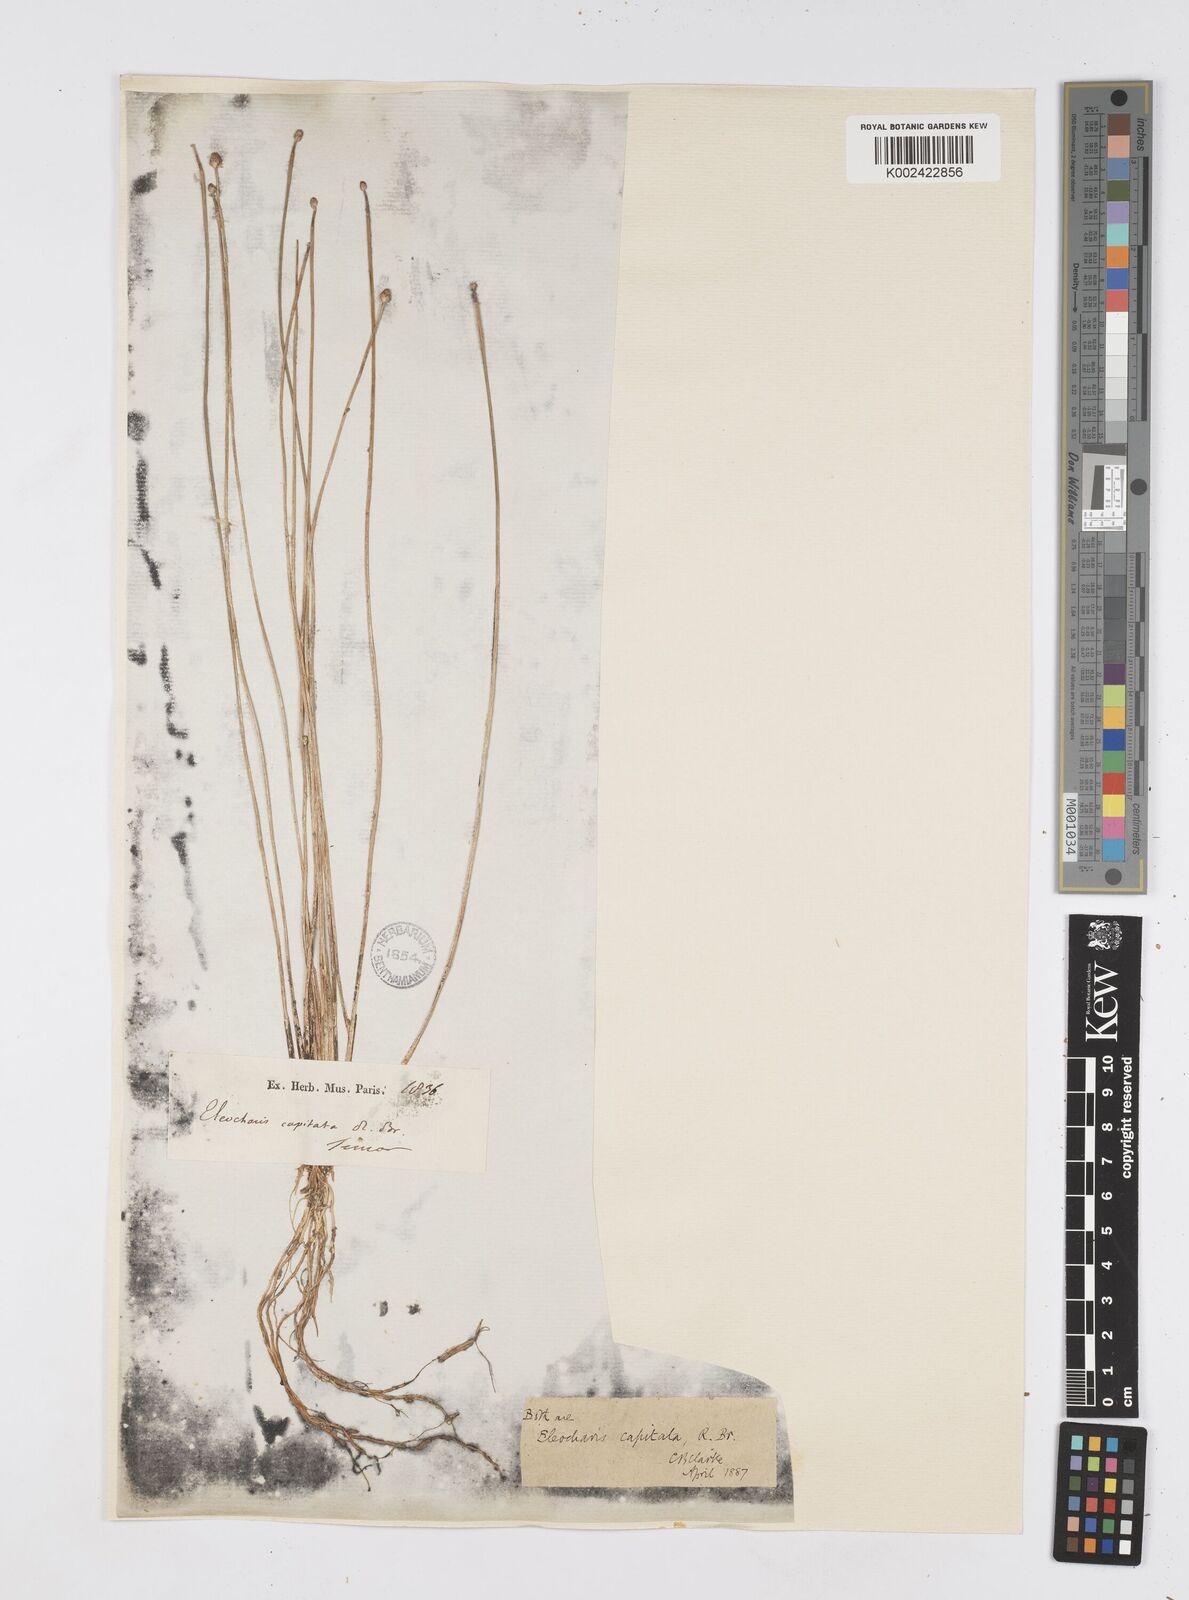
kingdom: Plantae
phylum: Tracheophyta
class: Liliopsida
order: Poales
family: Cyperaceae
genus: Eleocharis
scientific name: Eleocharis geniculata
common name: Canada spikesedge
